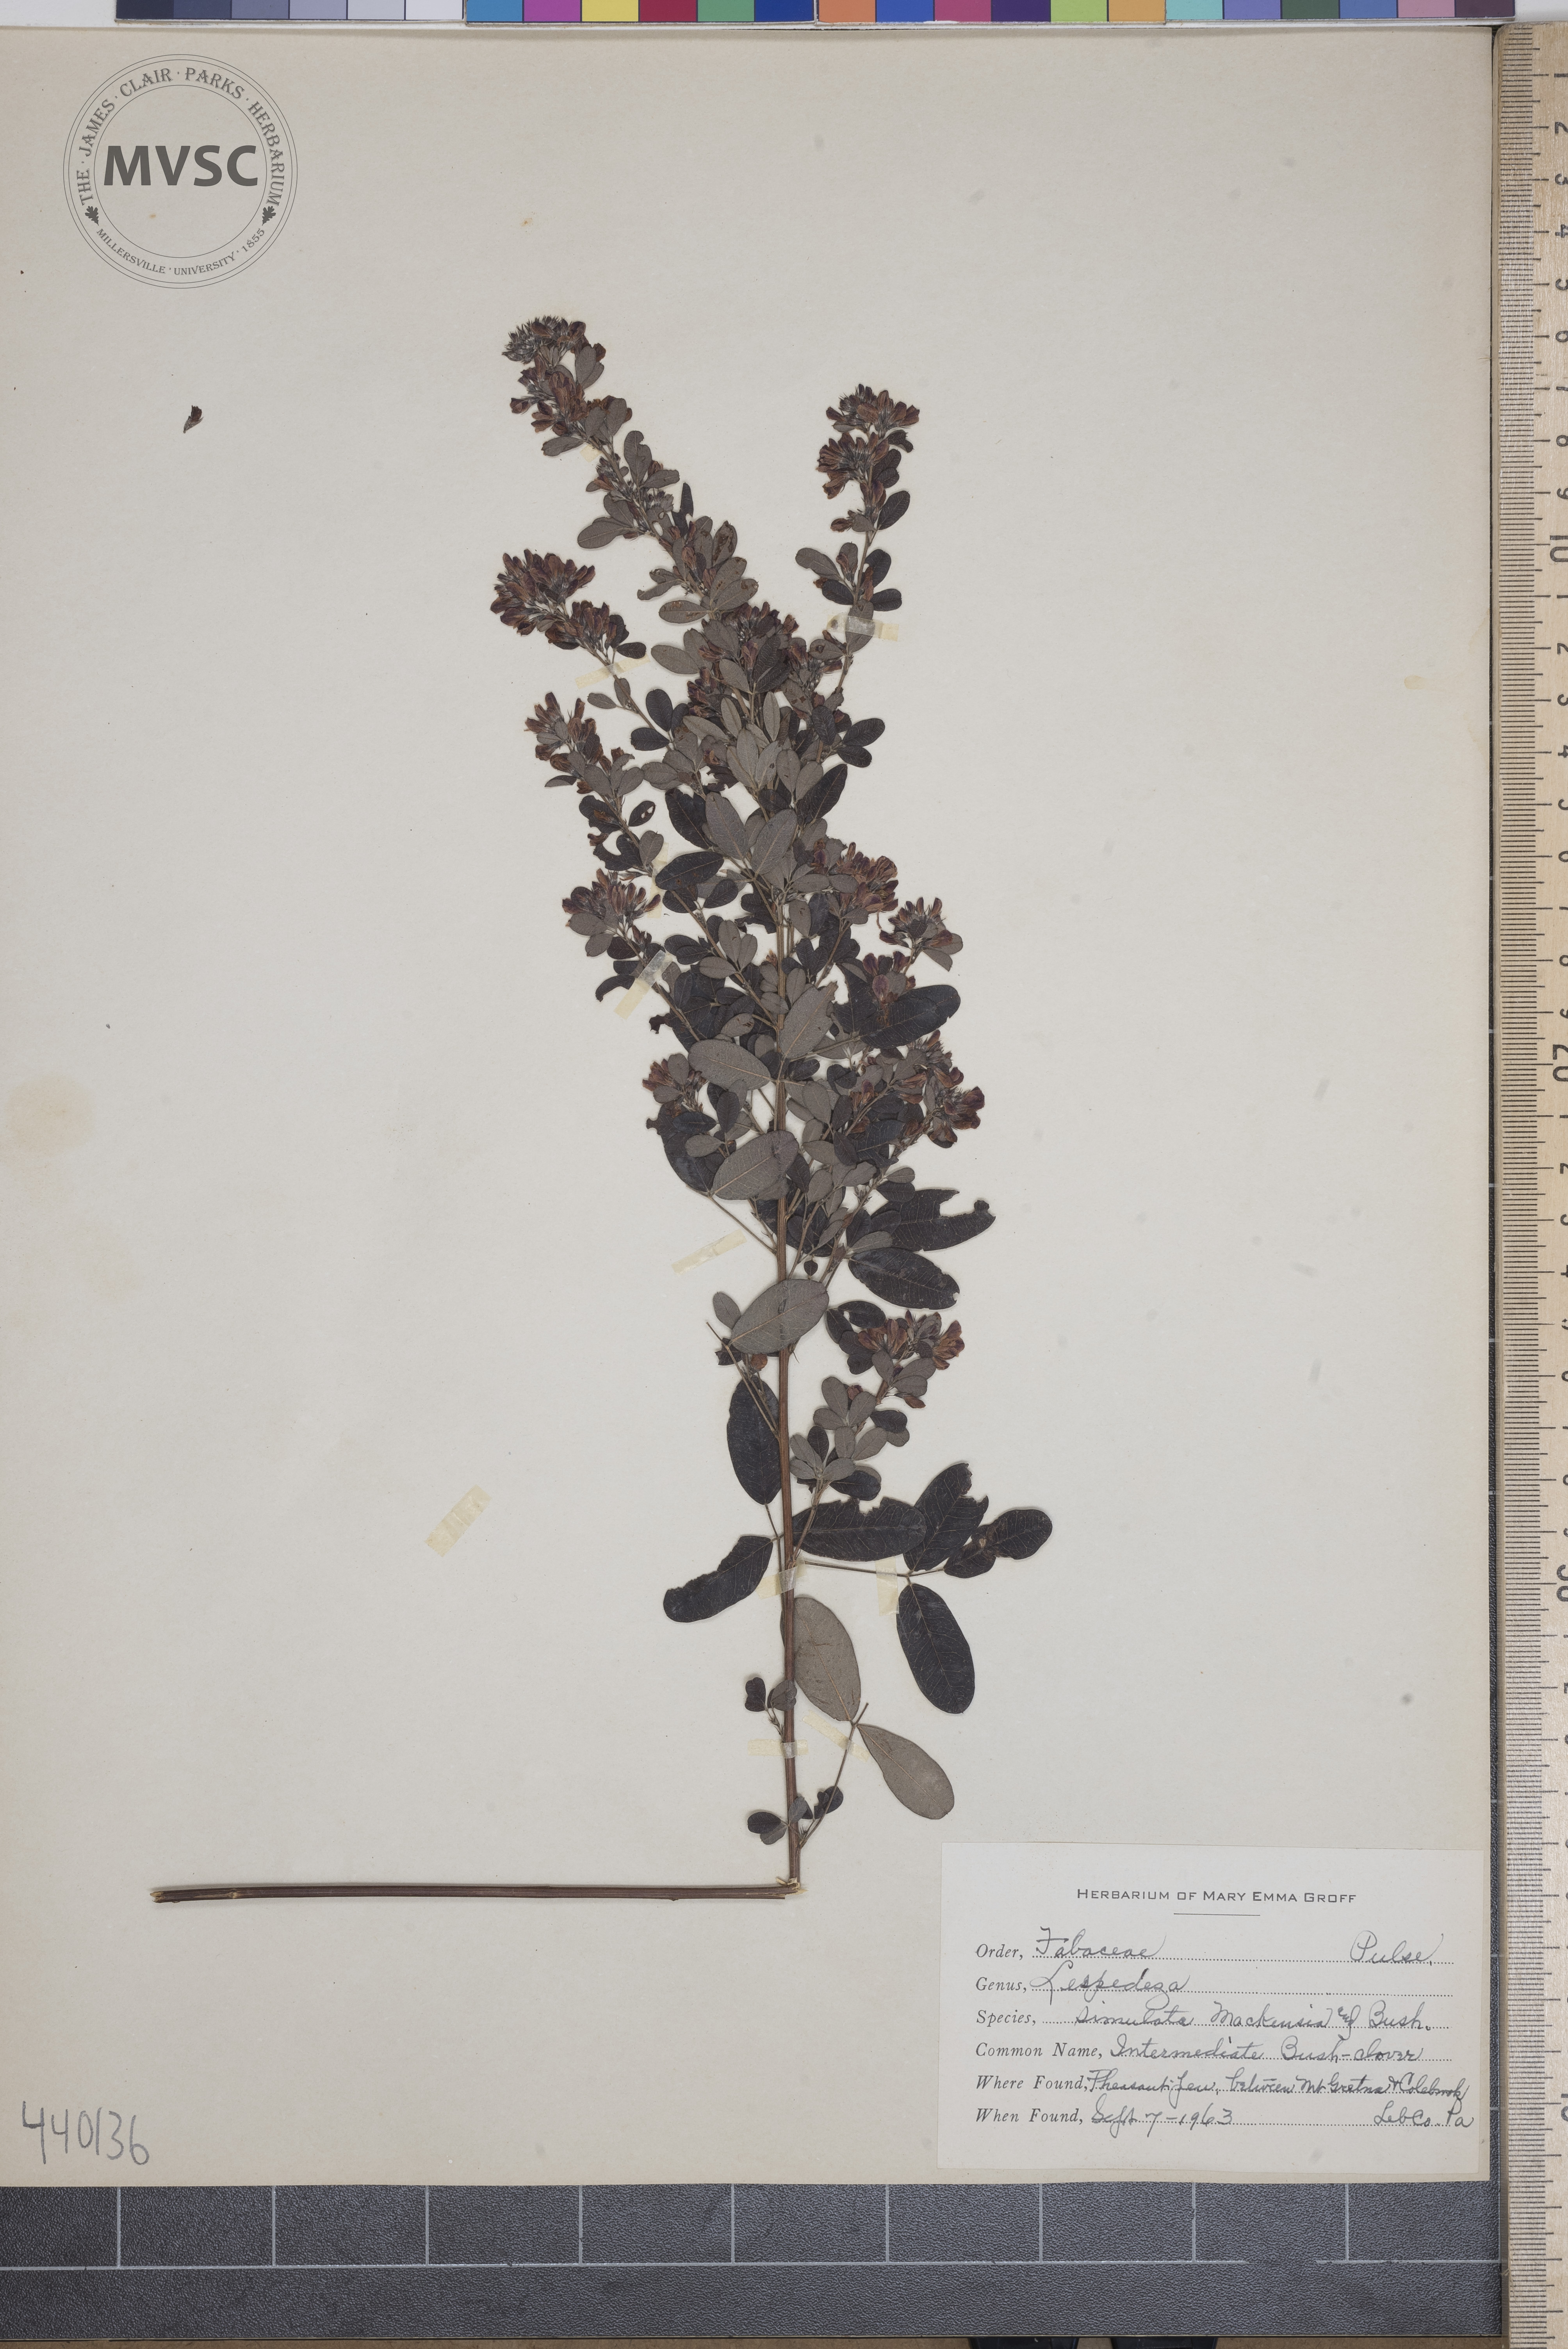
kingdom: Plantae
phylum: Tracheophyta
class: Magnoliopsida
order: Fabales
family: Fabaceae
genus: Lespedeza
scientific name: Lespedeza simulata
